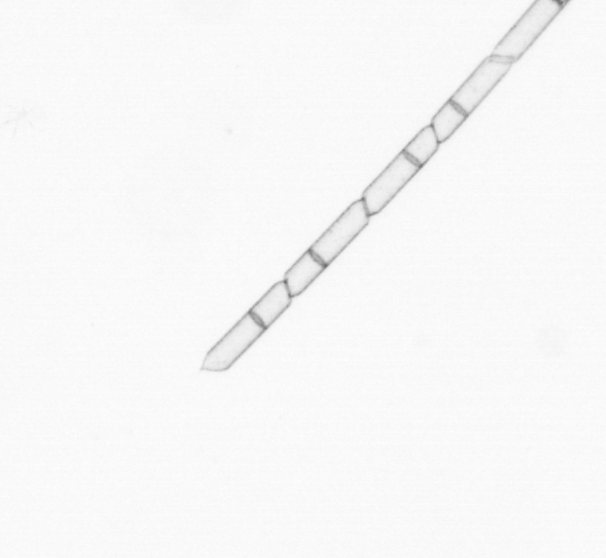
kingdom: Chromista
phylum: Ochrophyta
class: Bacillariophyceae
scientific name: Bacillariophyceae
